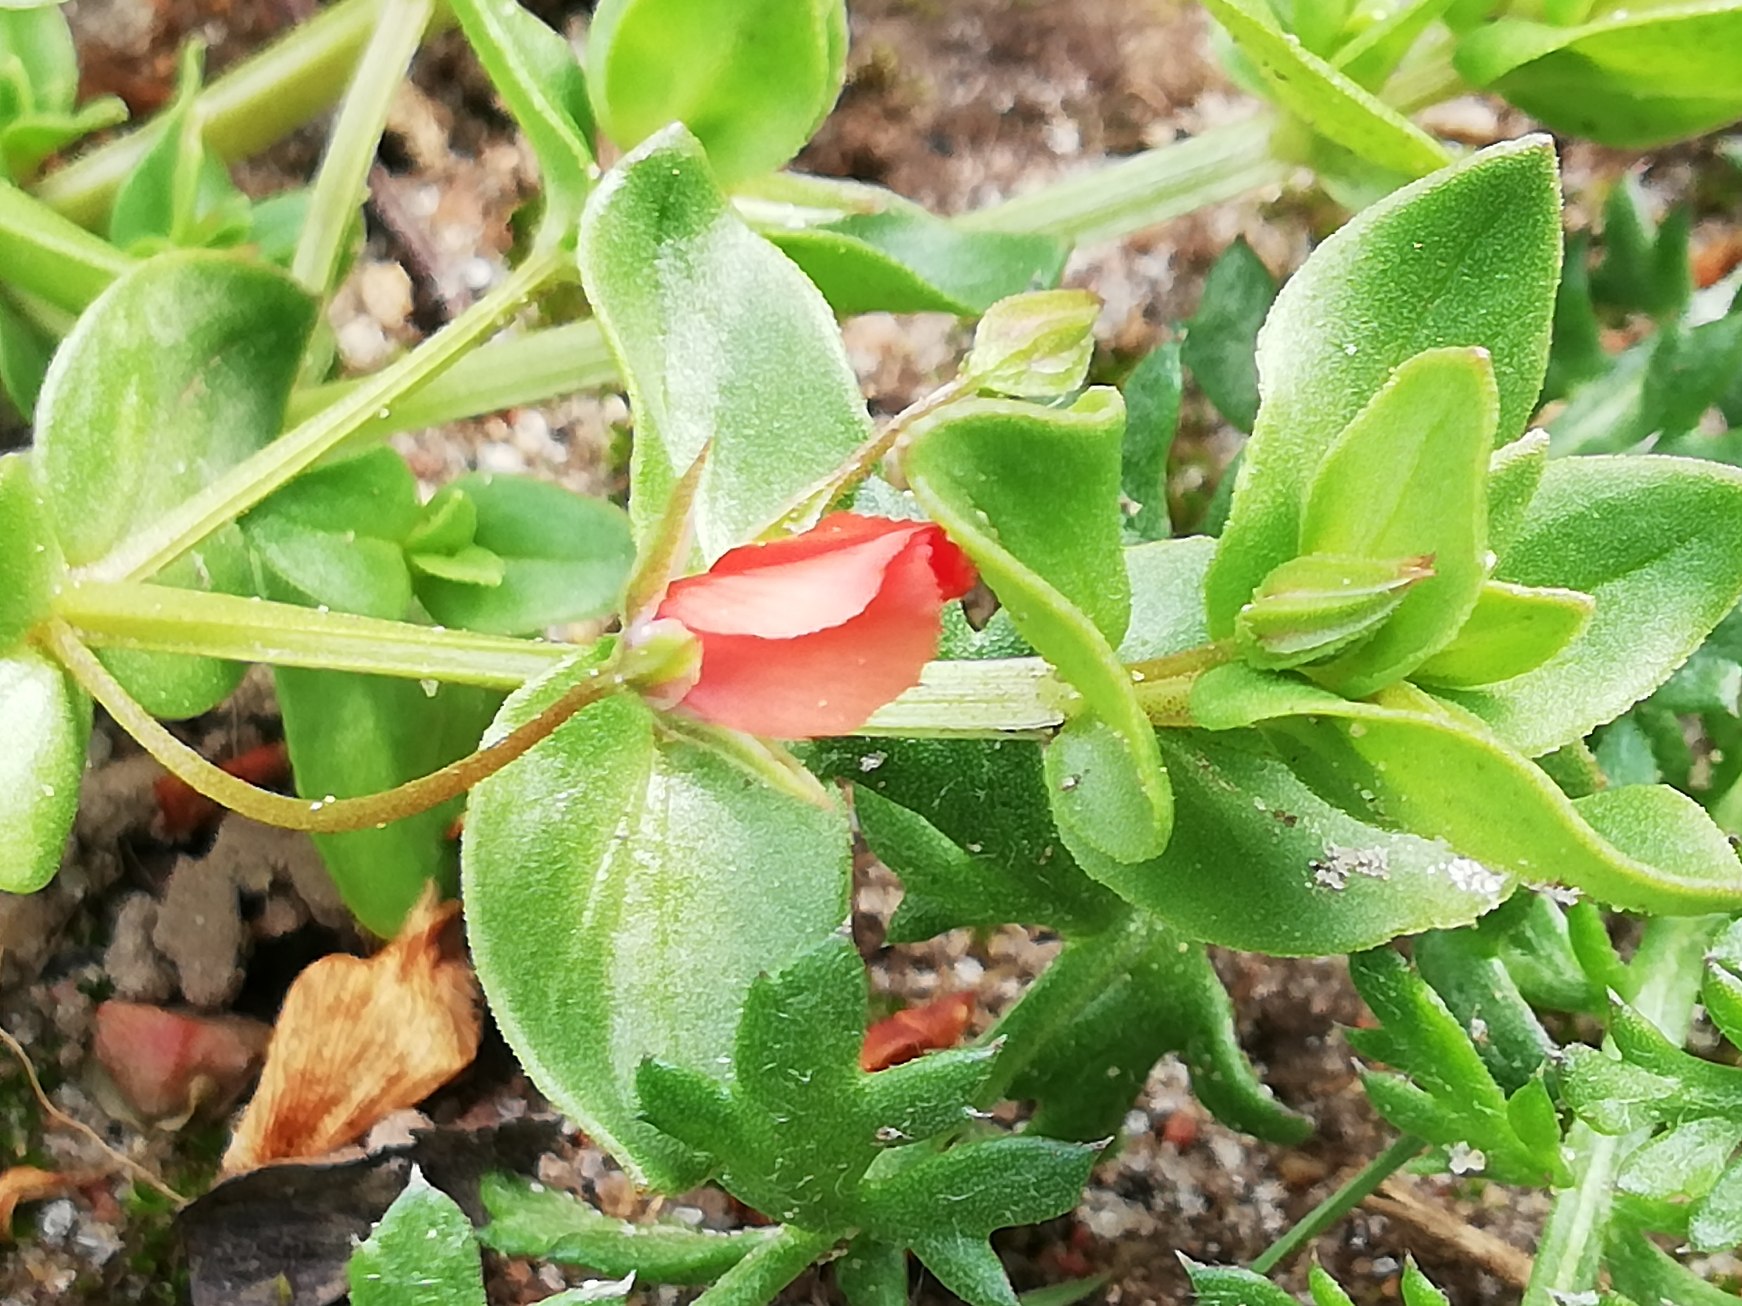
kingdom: Plantae
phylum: Tracheophyta
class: Magnoliopsida
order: Ericales
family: Primulaceae
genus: Lysimachia
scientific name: Lysimachia arvensis
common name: Rød arve
